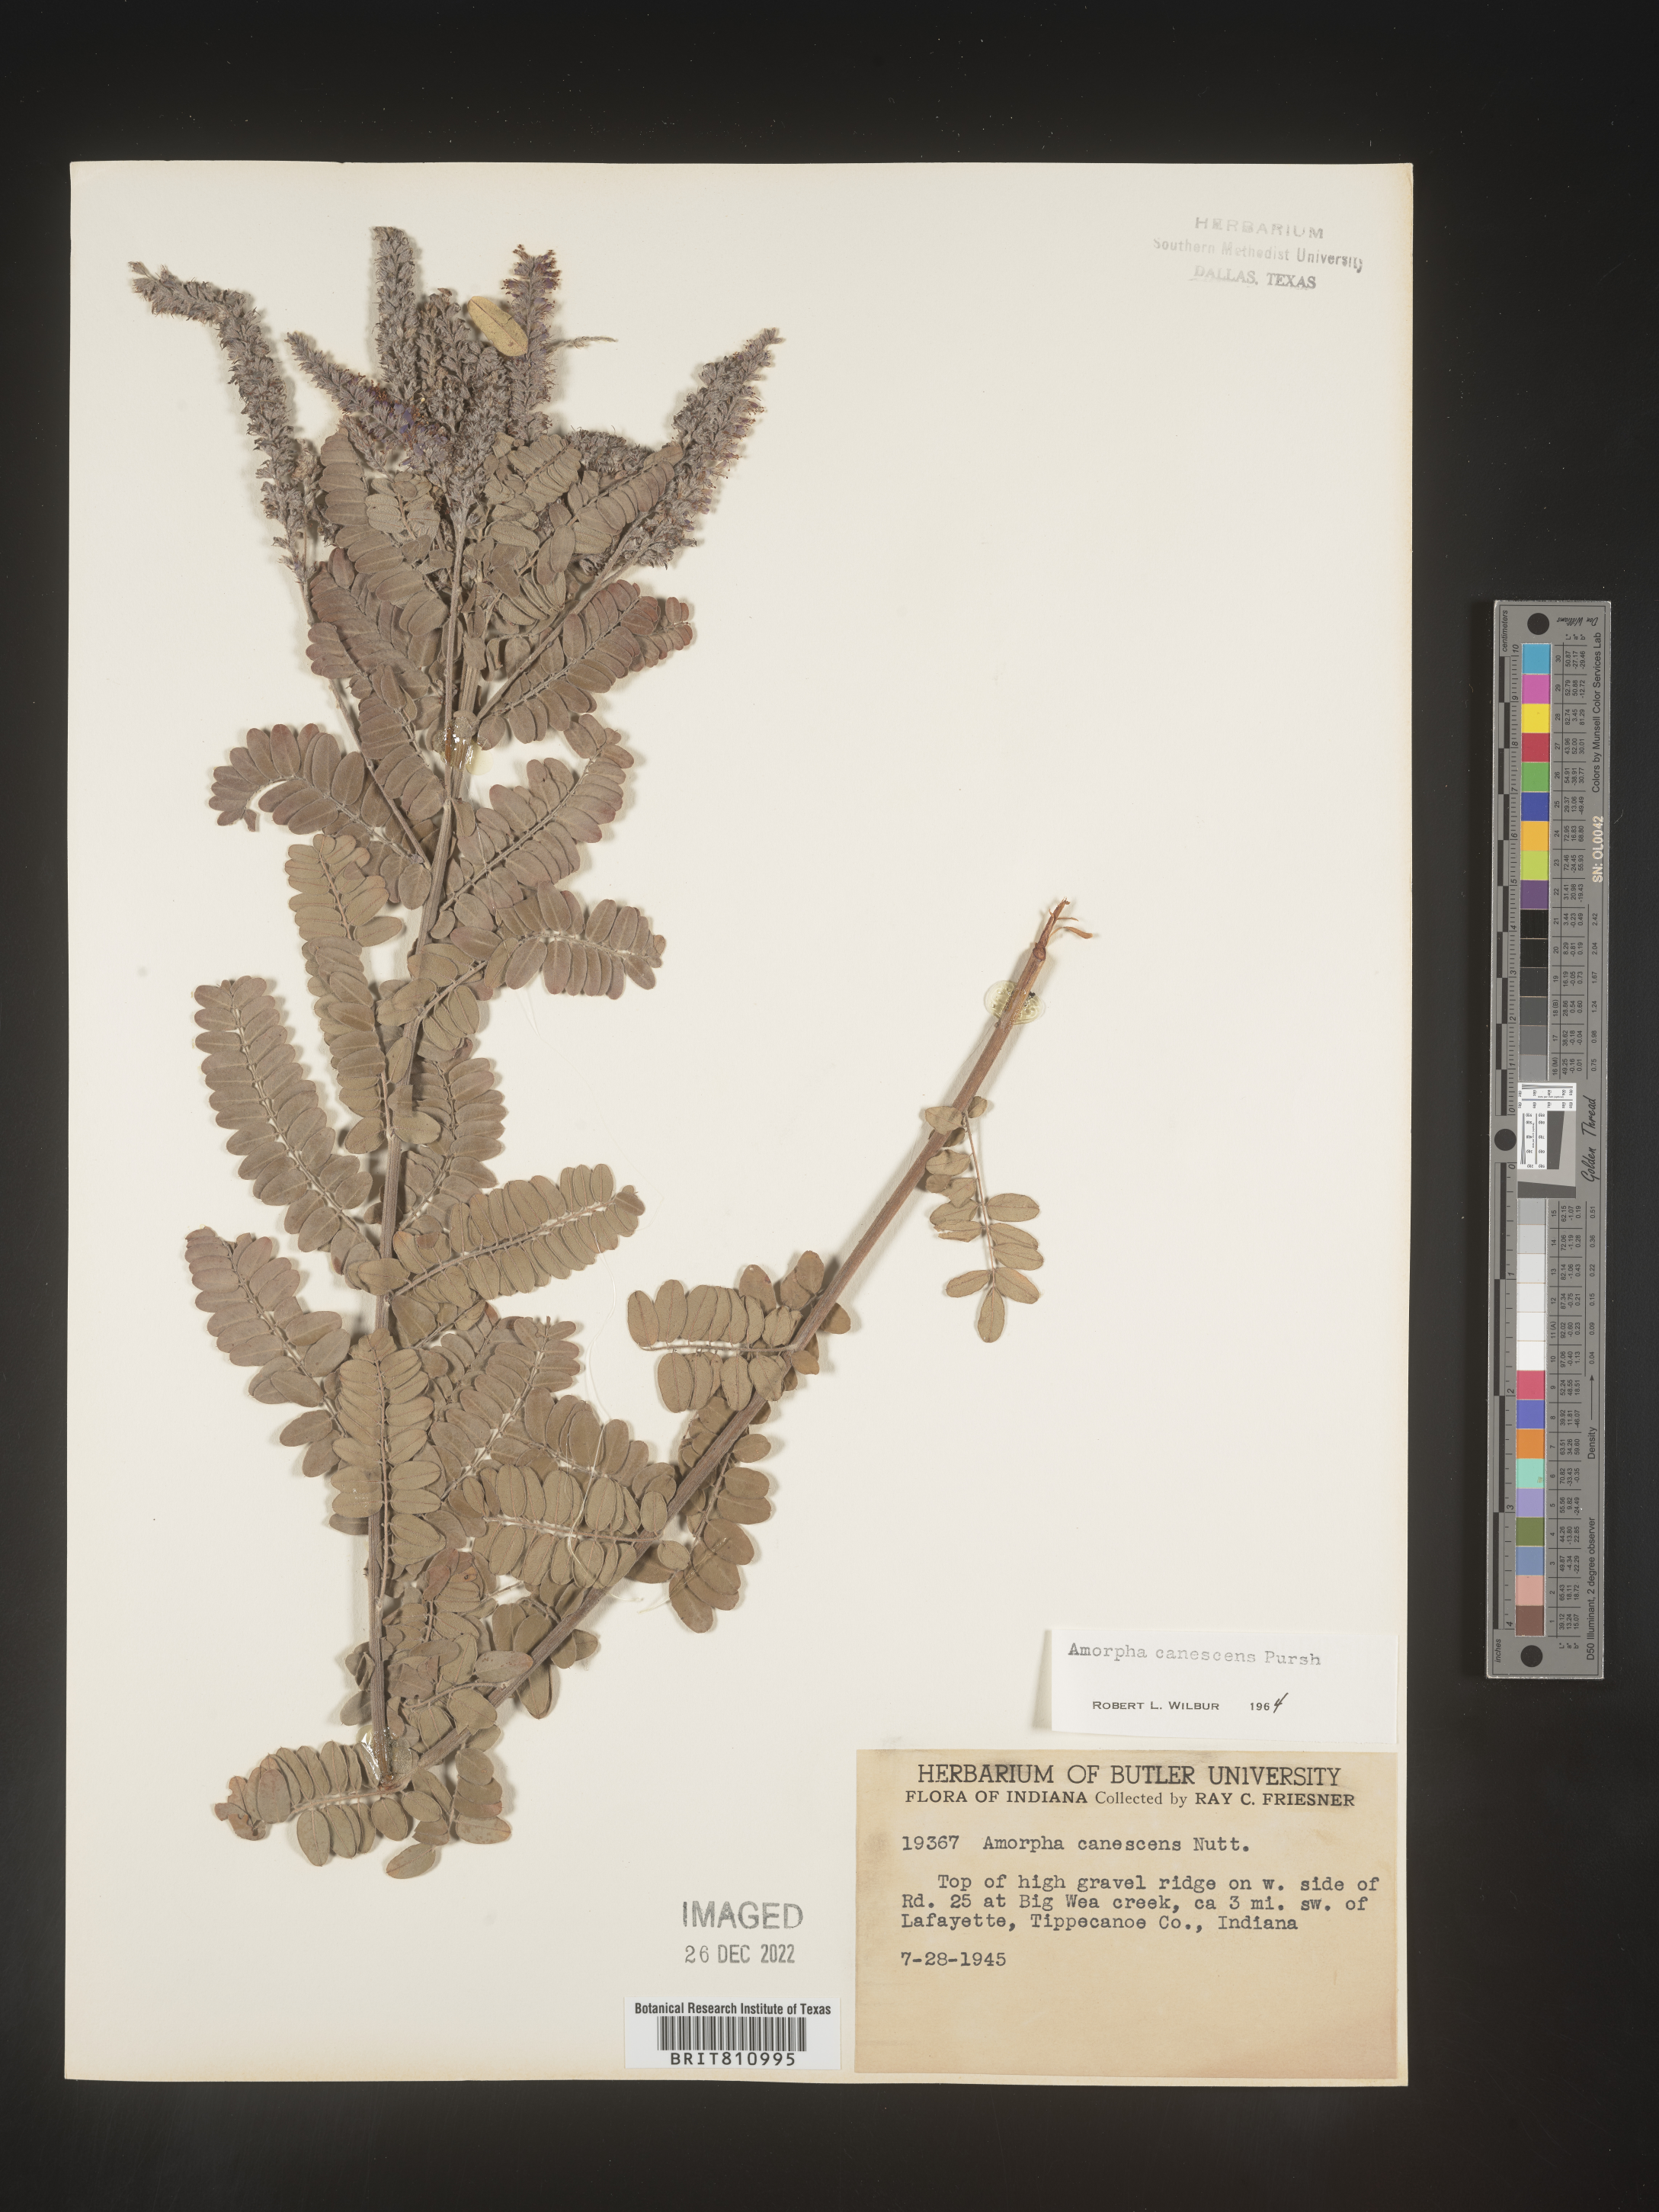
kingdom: Plantae
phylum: Tracheophyta
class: Magnoliopsida
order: Fabales
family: Fabaceae
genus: Amorpha
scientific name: Amorpha canescens
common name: Leadplant
